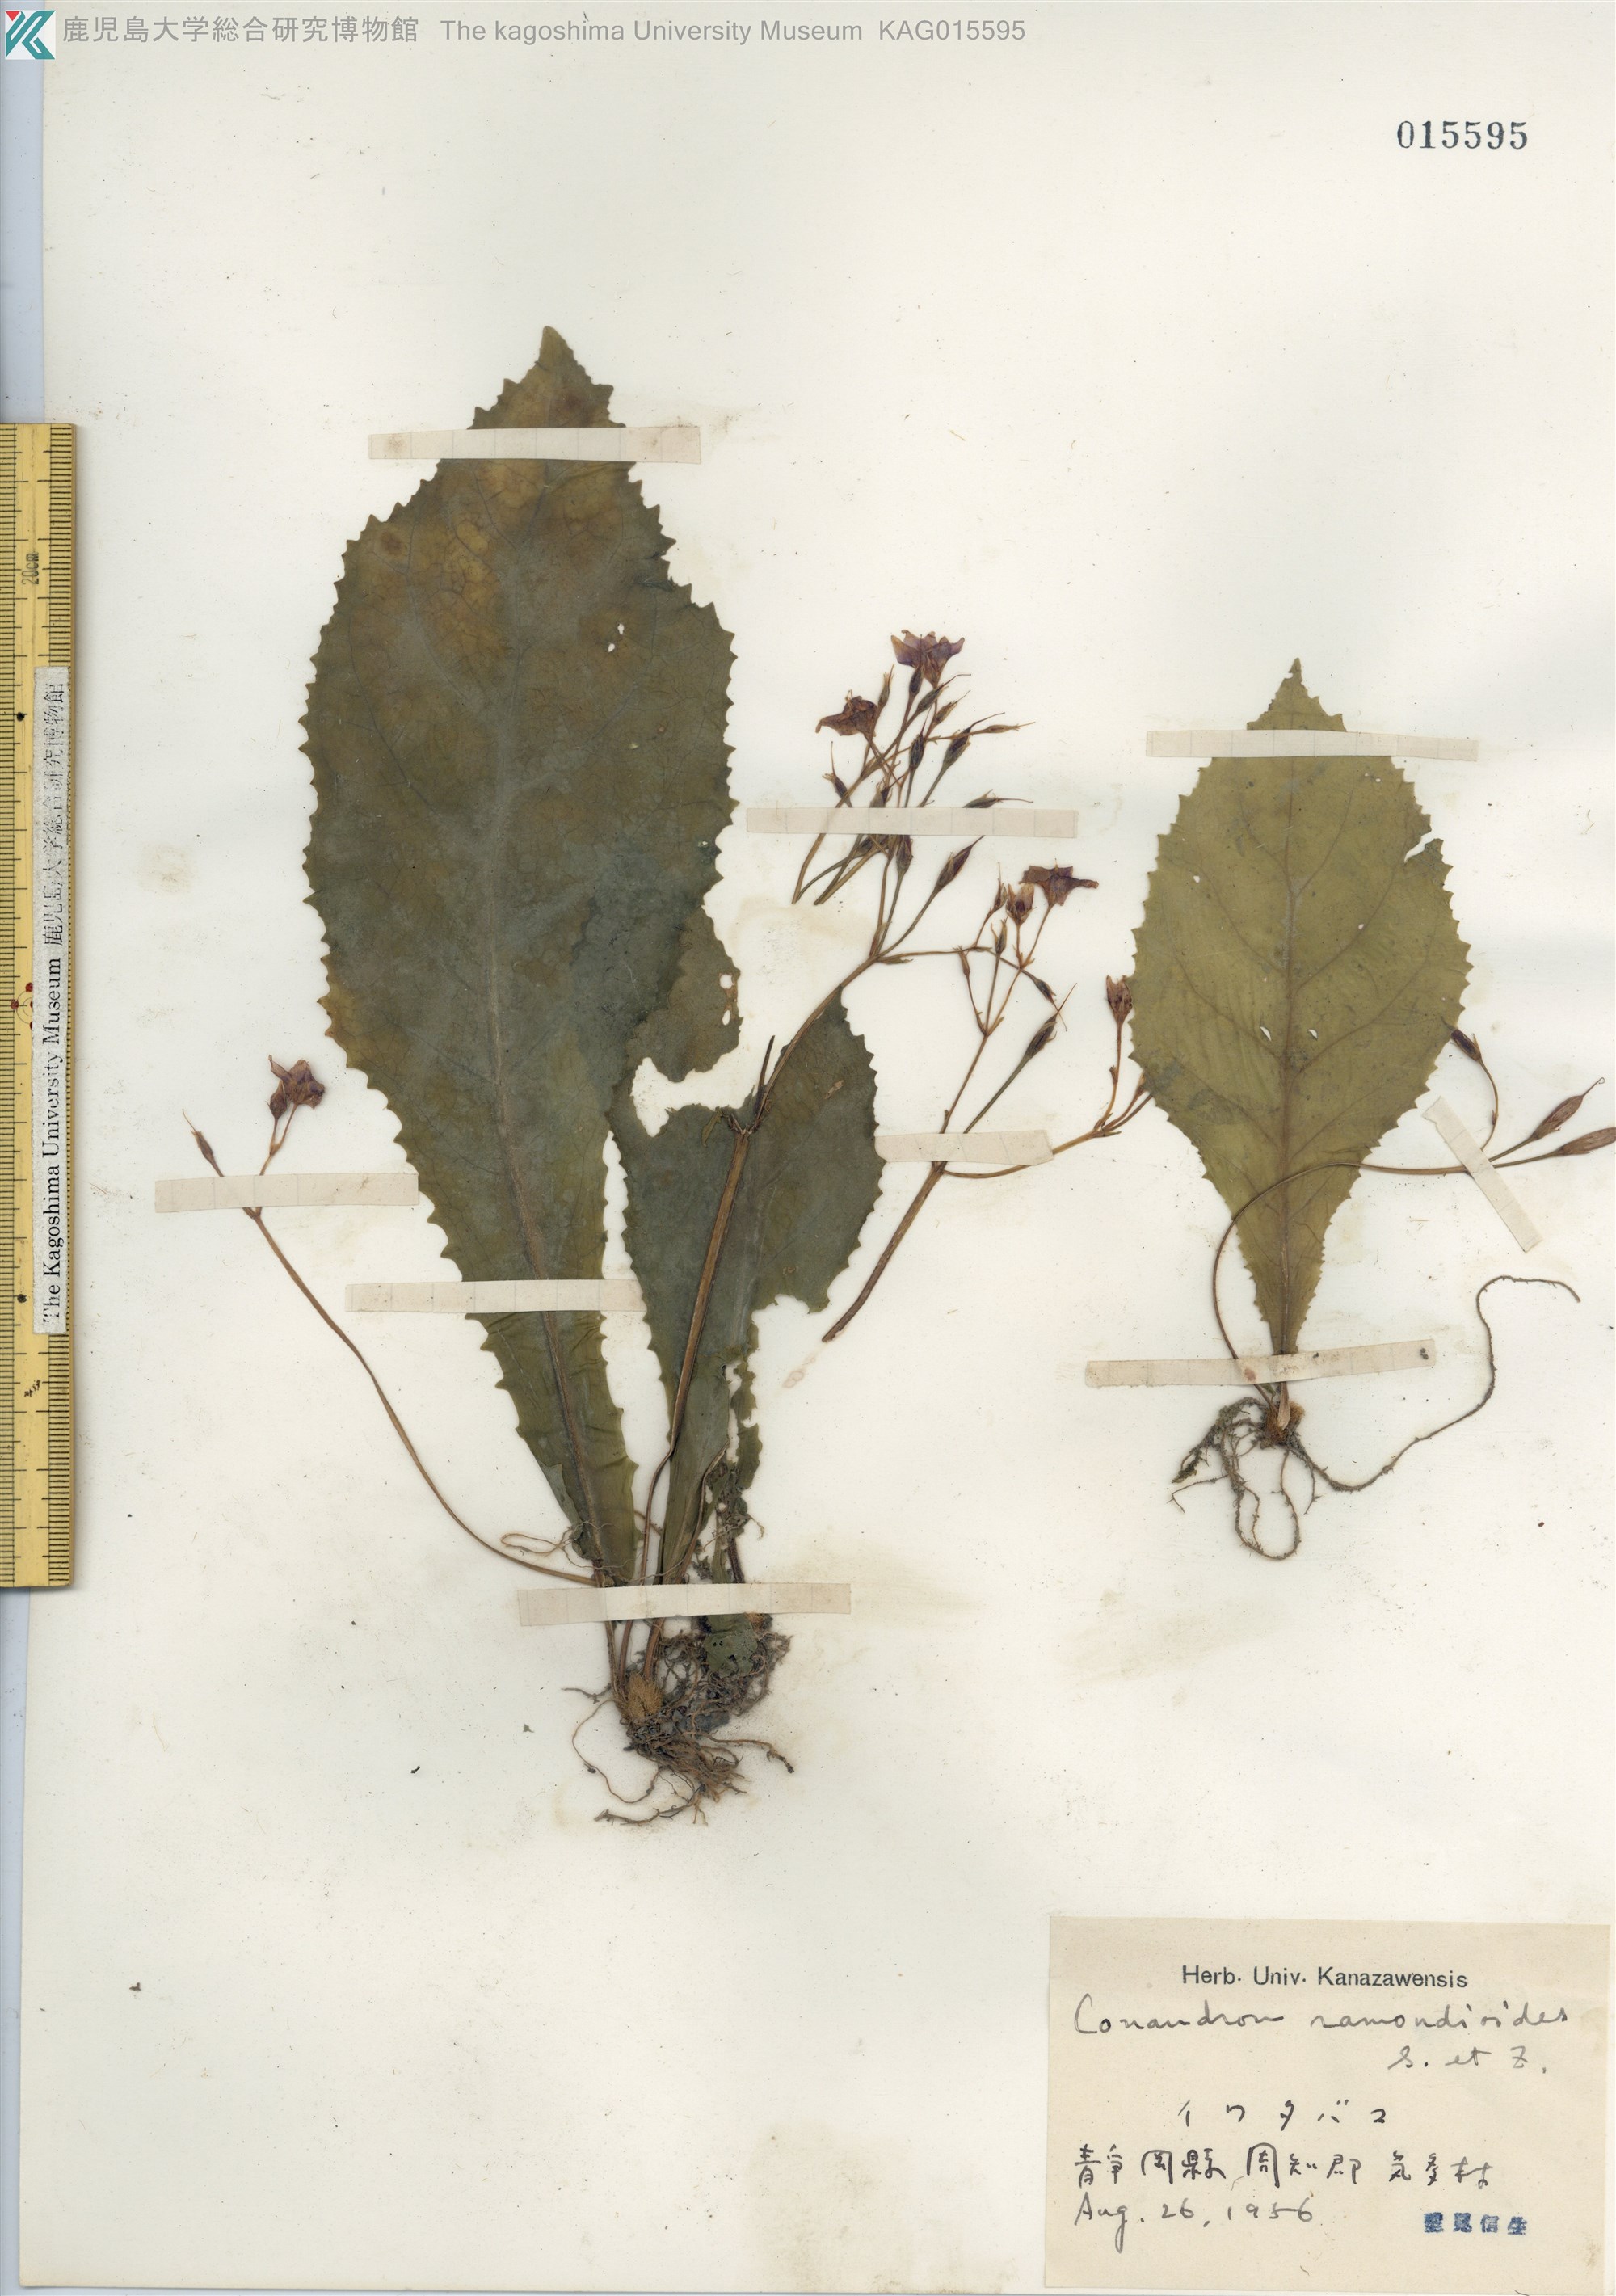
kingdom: Plantae
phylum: Tracheophyta
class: Magnoliopsida
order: Lamiales
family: Gesneriaceae
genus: Conandron
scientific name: Conandron ramondioides
